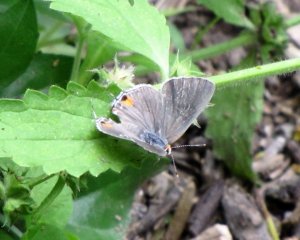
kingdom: Animalia
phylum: Arthropoda
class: Insecta
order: Lepidoptera
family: Lycaenidae
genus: Strymon
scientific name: Strymon melinus
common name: Gray Hairstreak
